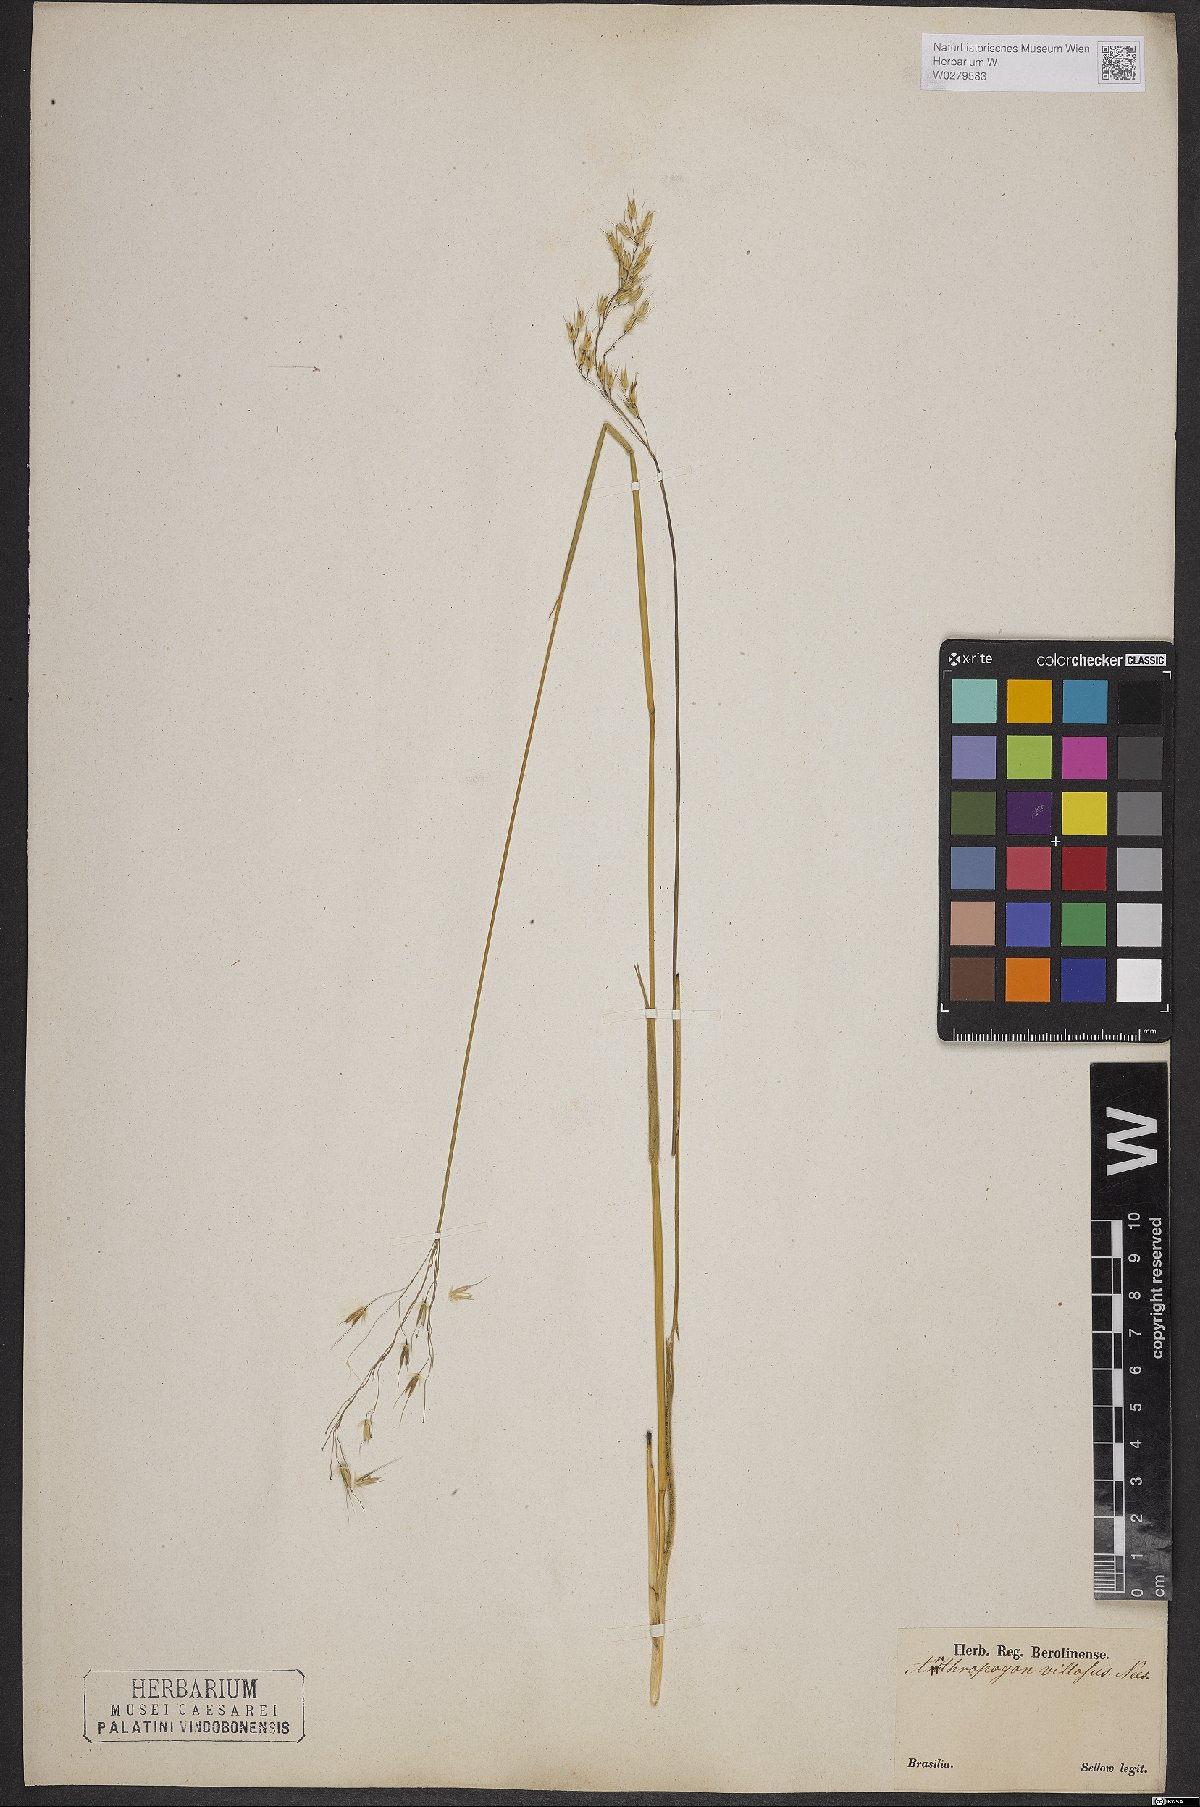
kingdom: Plantae
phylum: Tracheophyta
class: Liliopsida
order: Poales
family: Poaceae
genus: Arthropogon
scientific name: Arthropogon villosus
